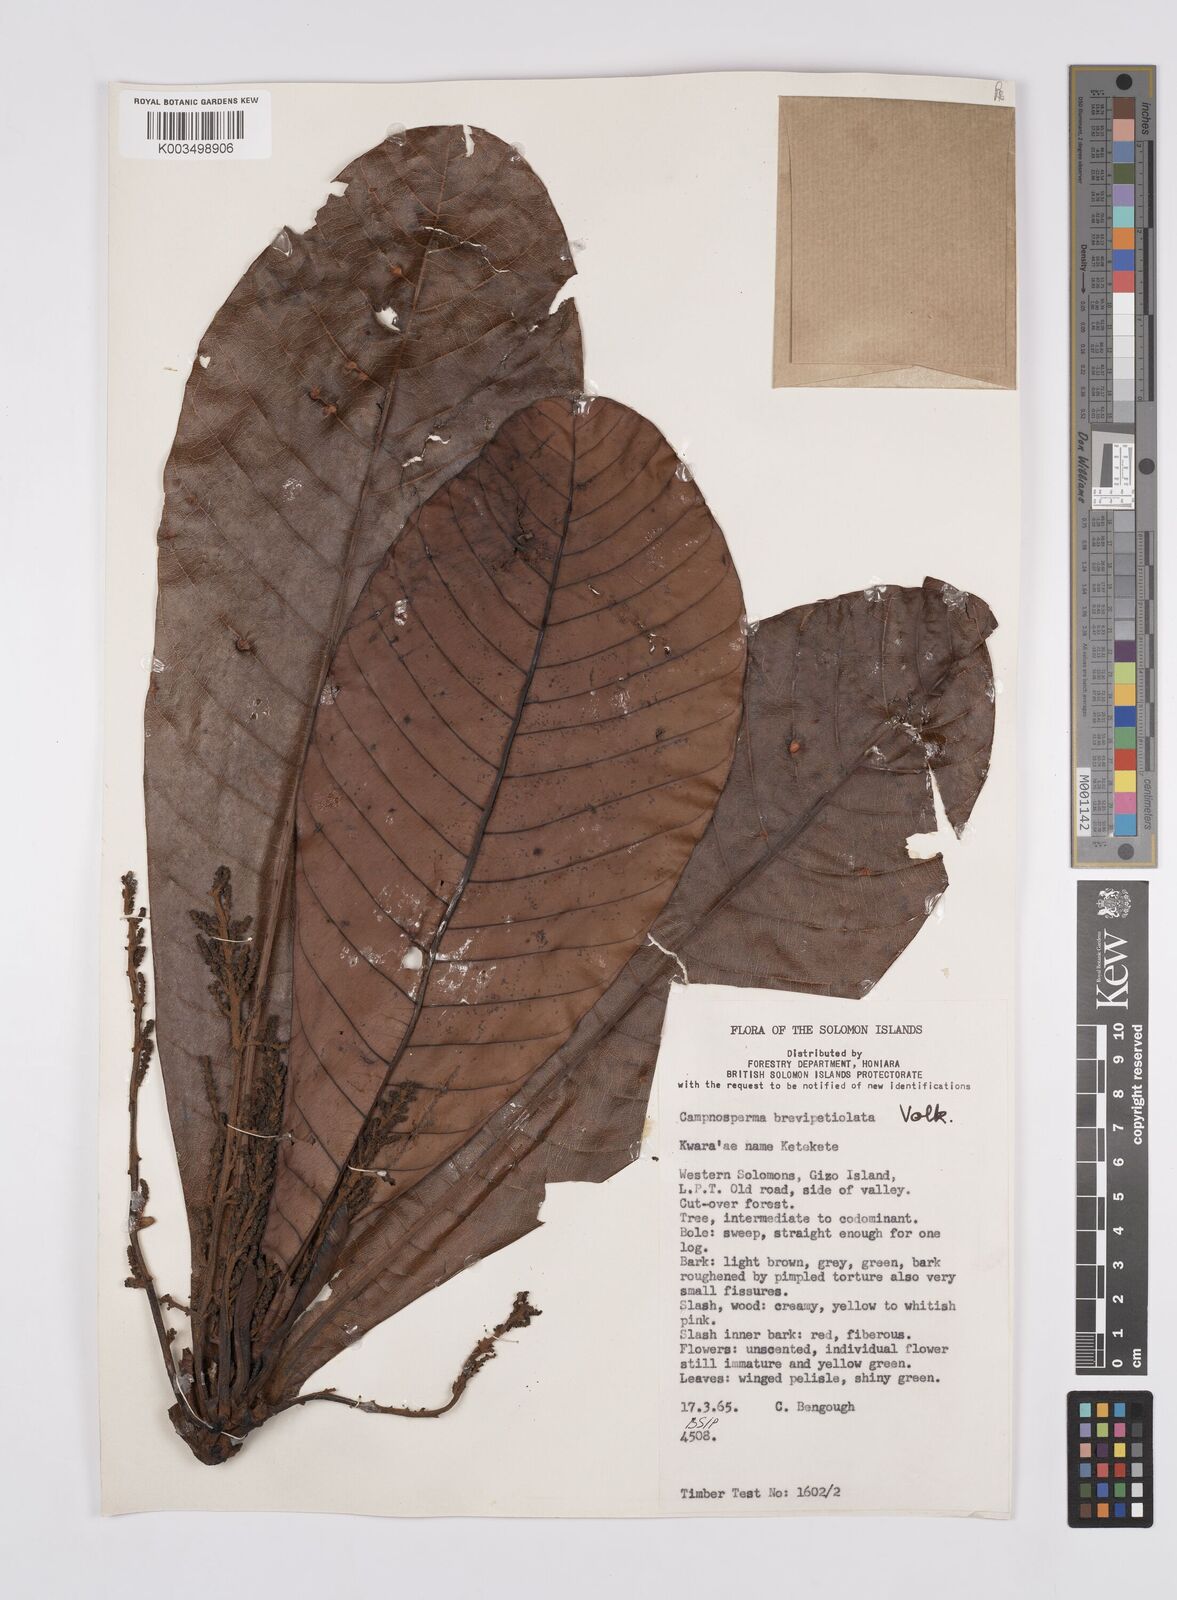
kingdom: Plantae
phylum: Tracheophyta
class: Magnoliopsida
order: Sapindales
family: Anacardiaceae
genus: Campnosperma
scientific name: Campnosperma brevipetiolatum
